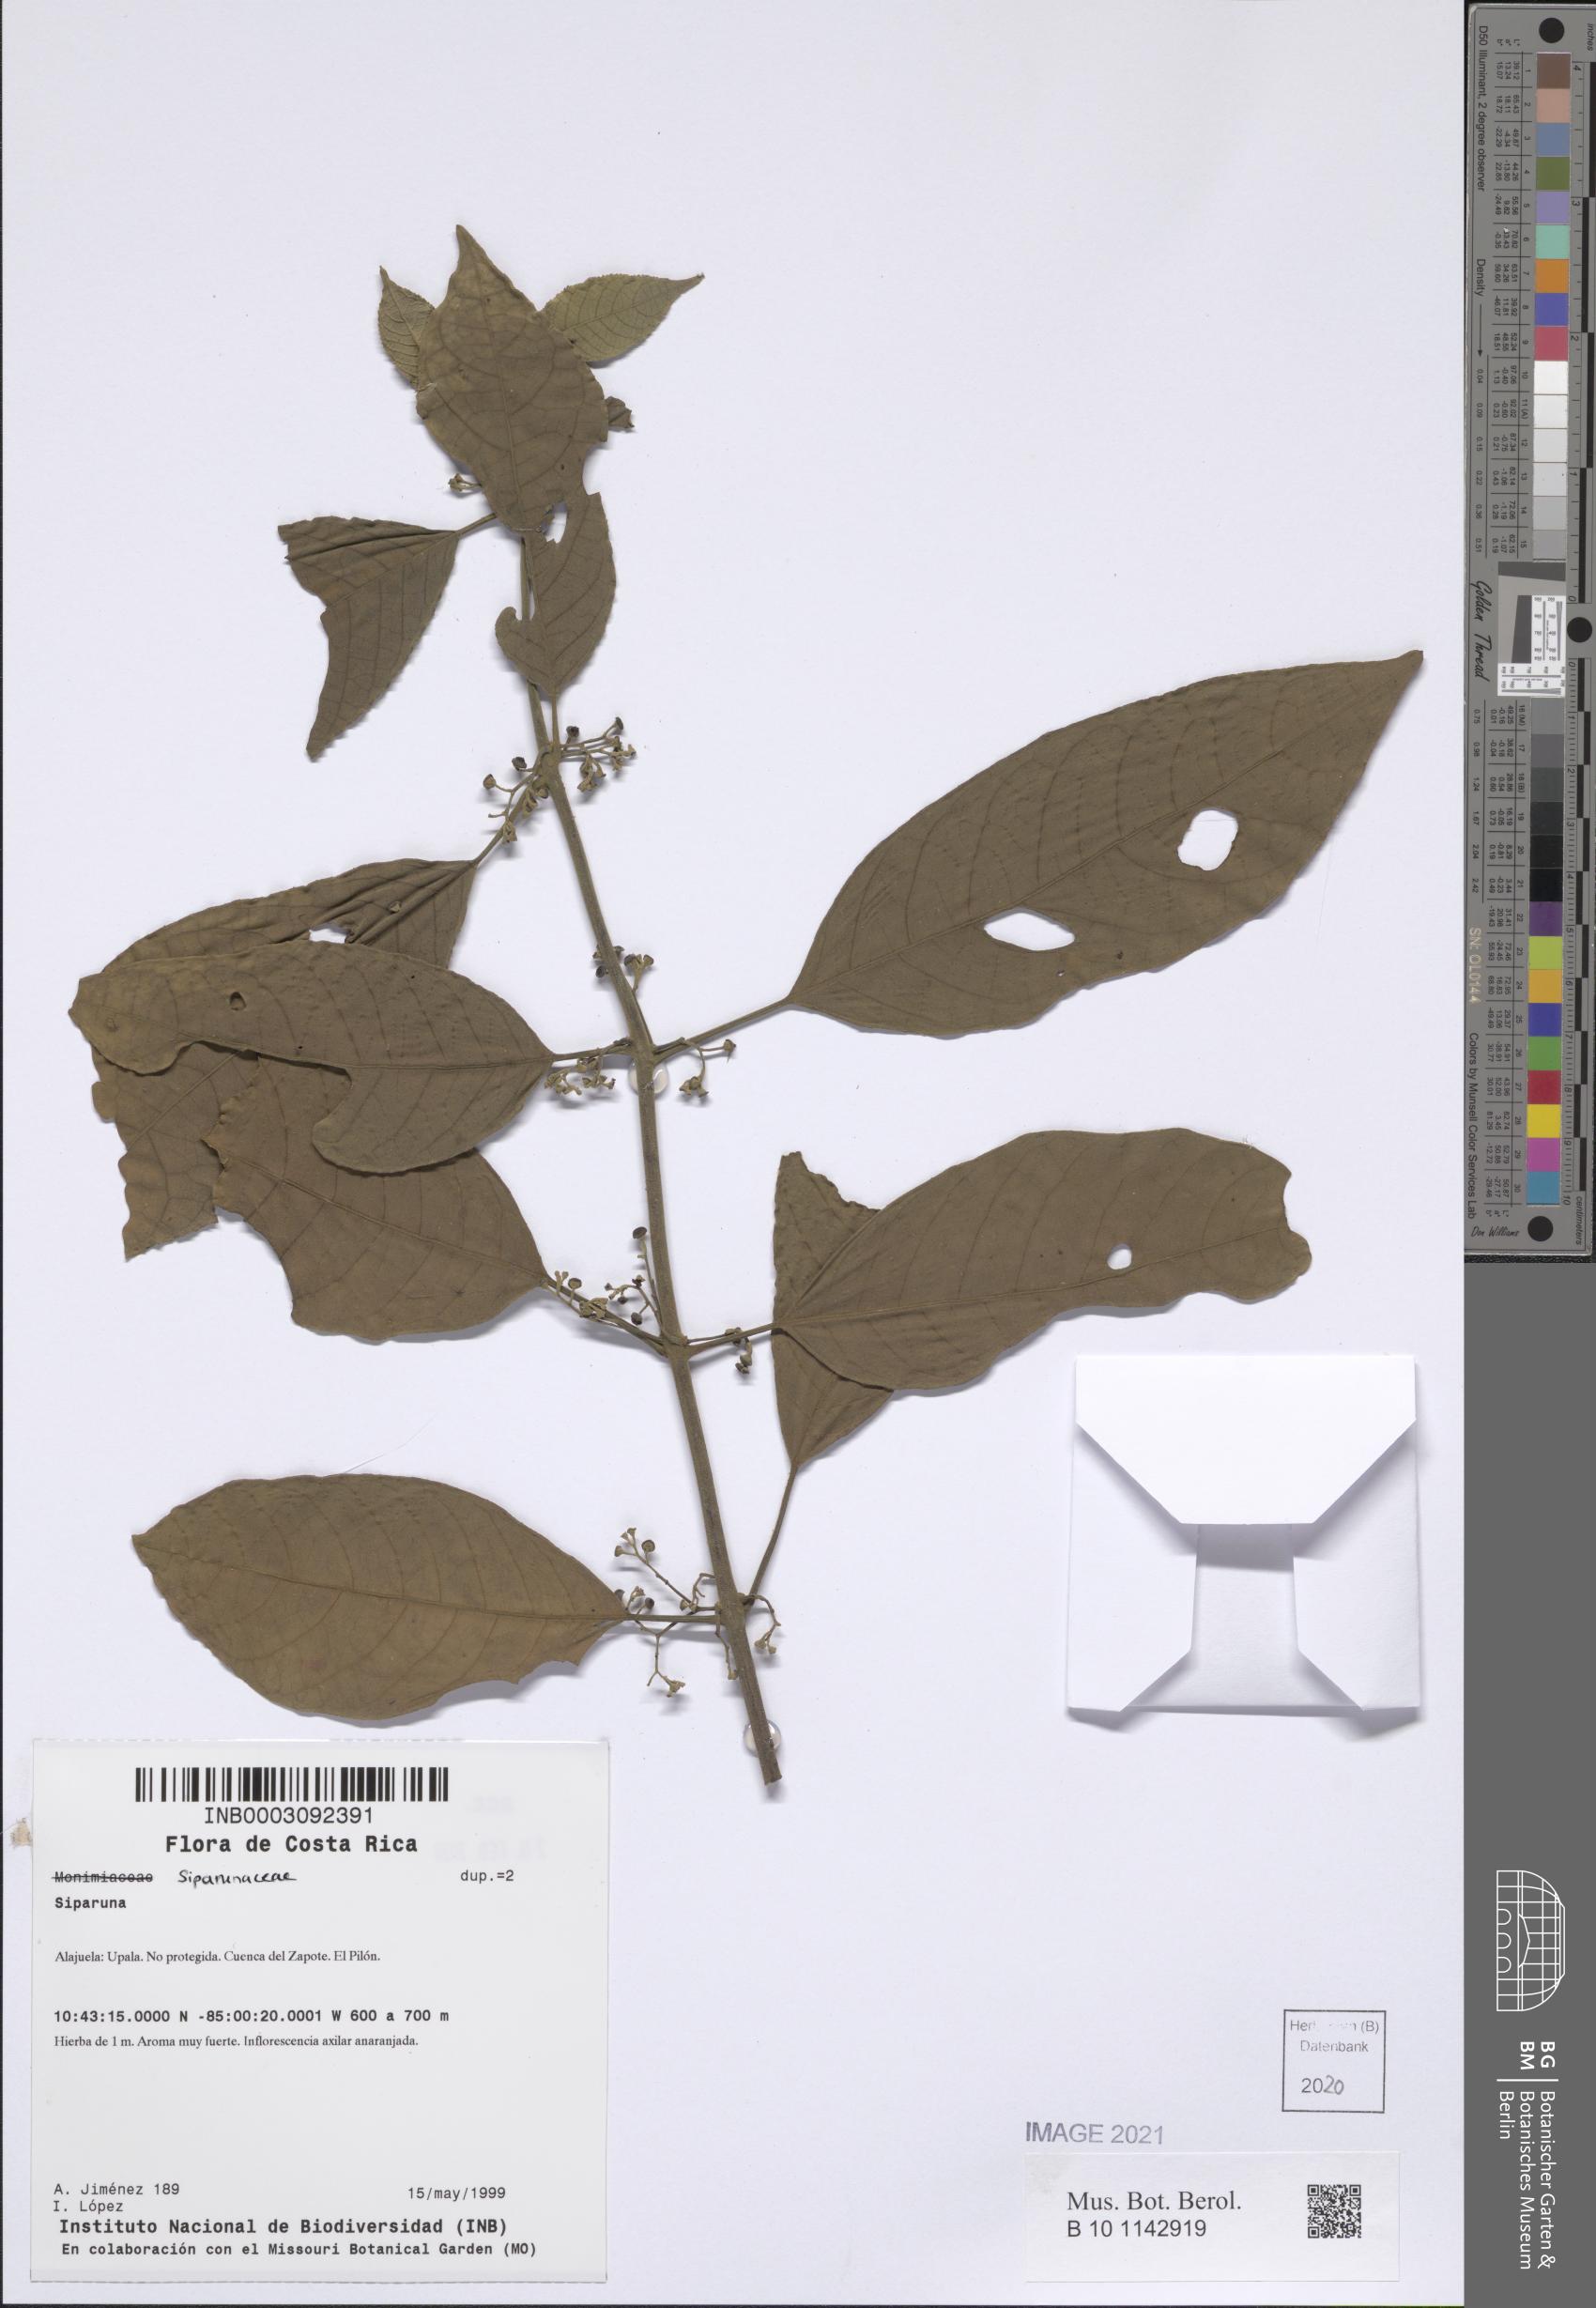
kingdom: Plantae
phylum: Tracheophyta
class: Magnoliopsida
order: Laurales
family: Siparunaceae
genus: Siparuna
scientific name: Siparuna
